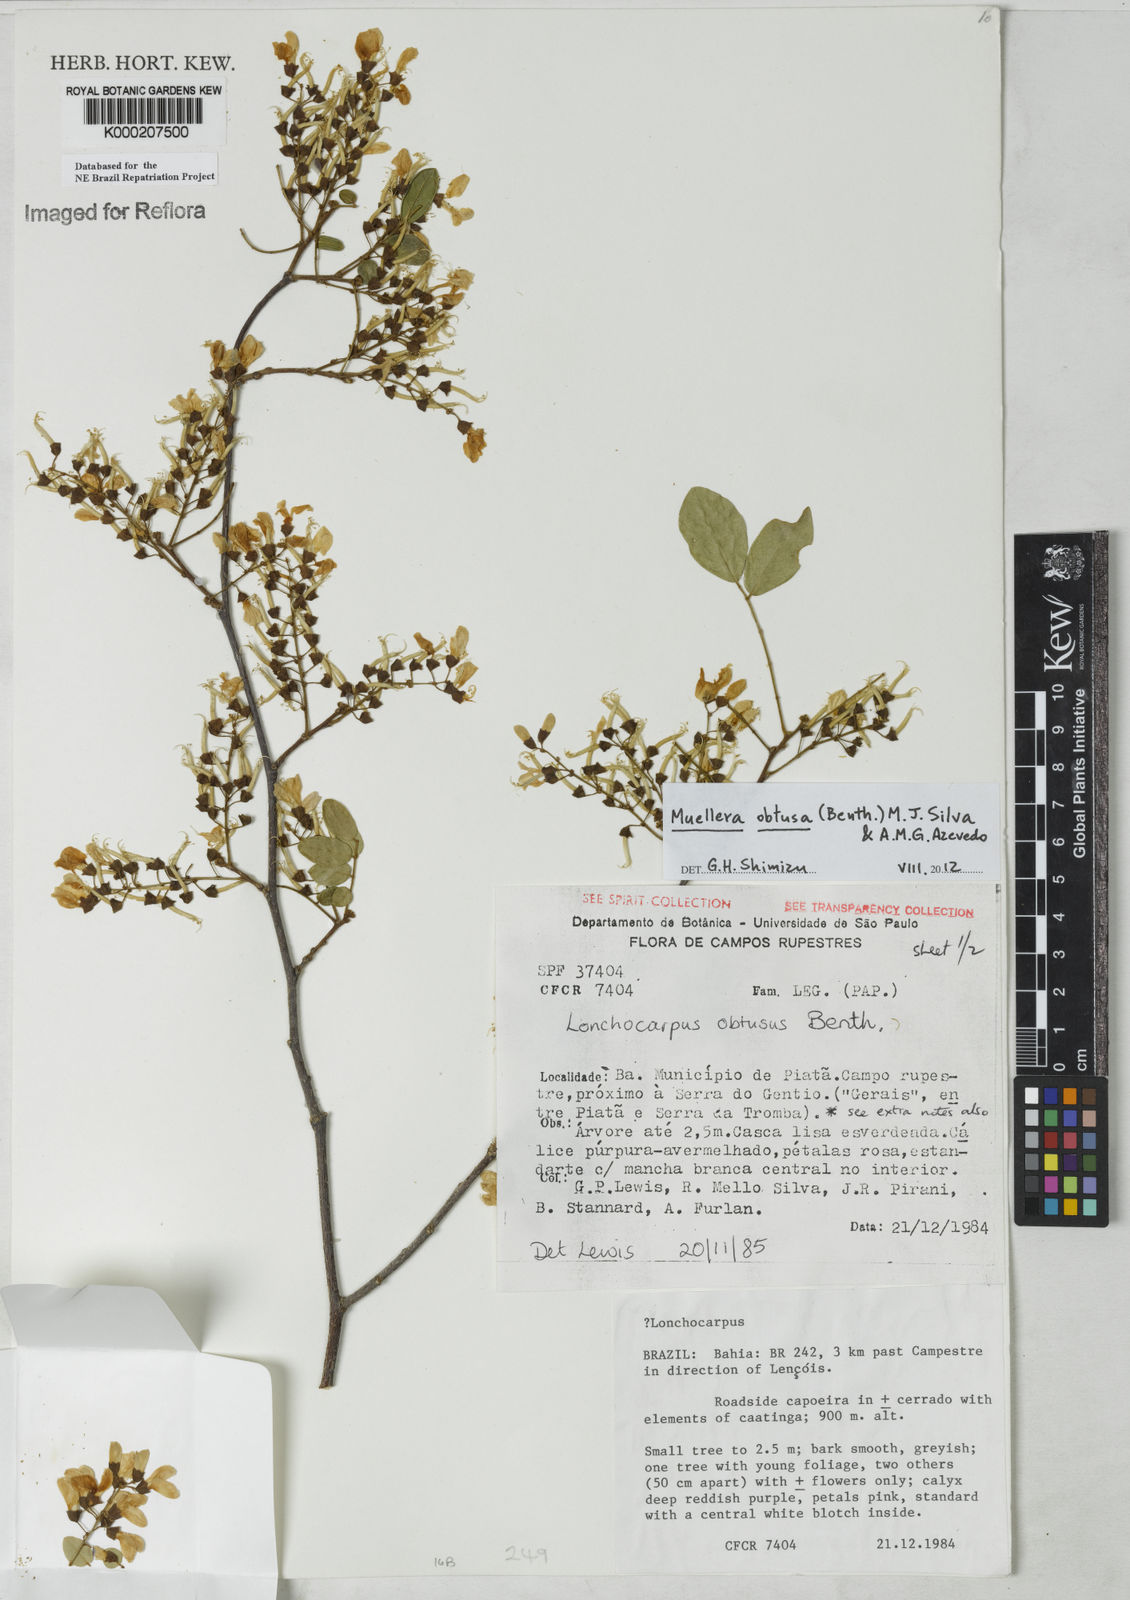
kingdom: Plantae
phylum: Tracheophyta
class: Magnoliopsida
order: Fabales
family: Fabaceae
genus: Muellera
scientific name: Muellera obtusa
